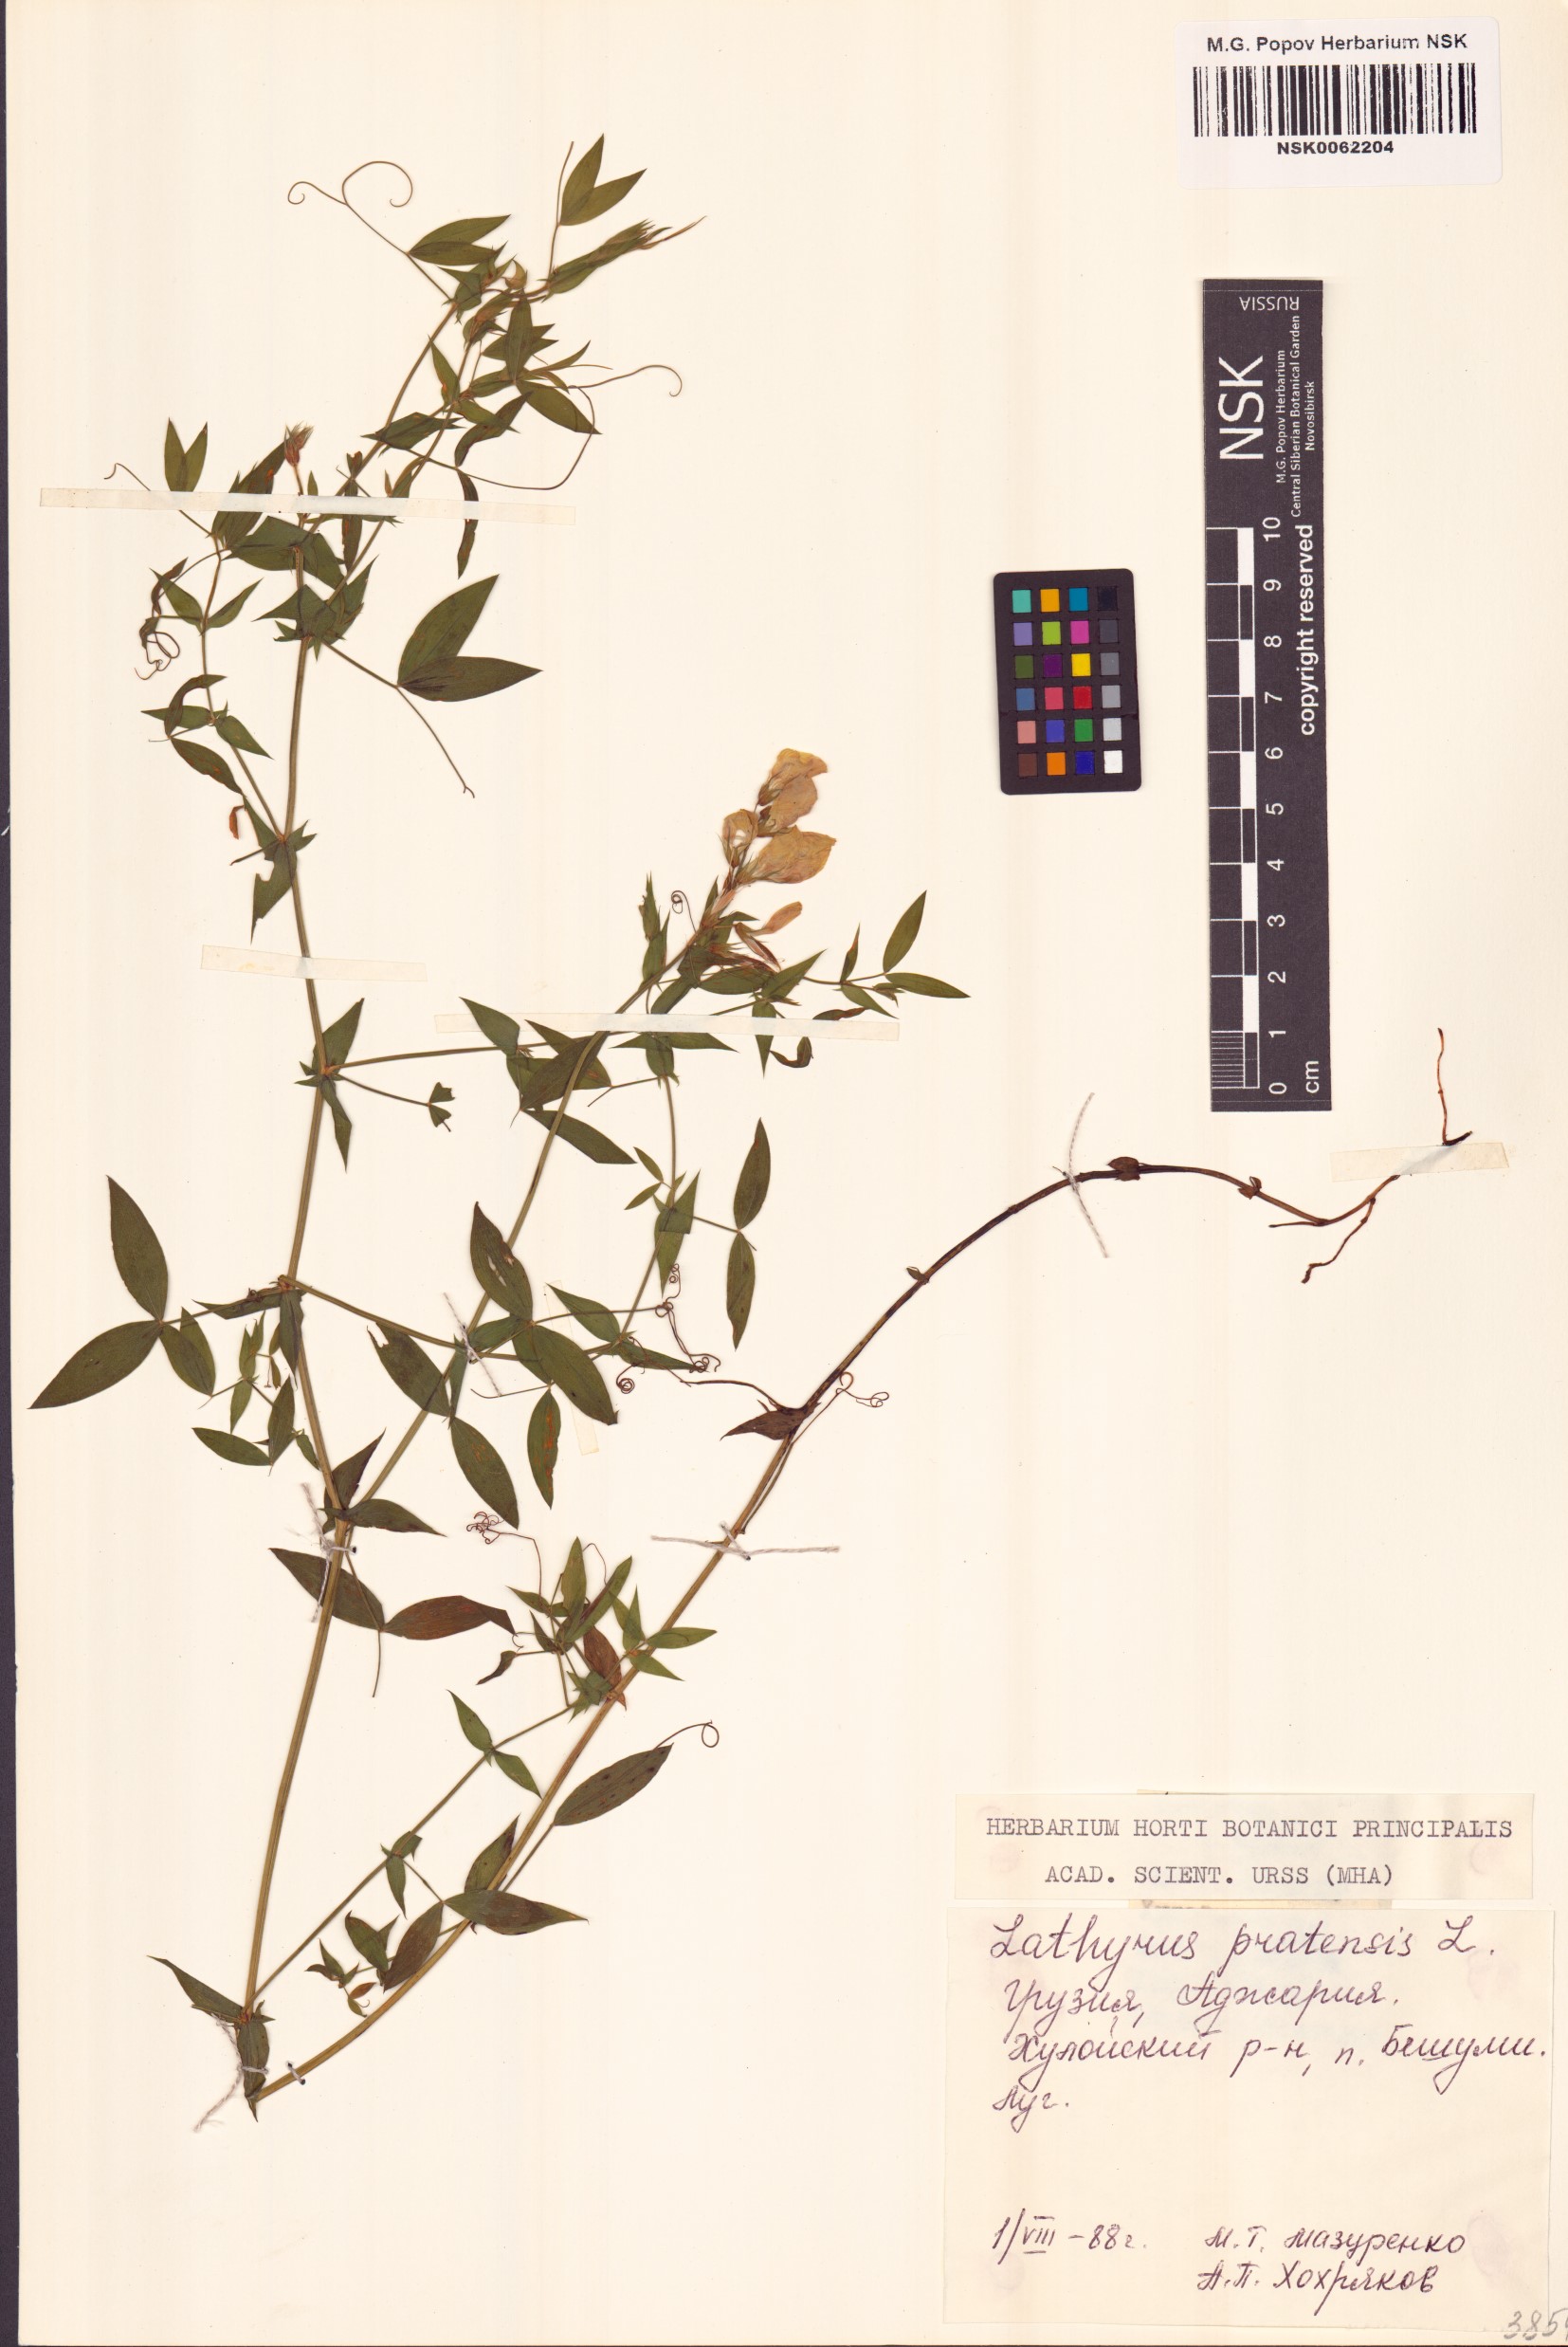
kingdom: Plantae
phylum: Tracheophyta
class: Magnoliopsida
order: Fabales
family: Fabaceae
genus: Lathyrus
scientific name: Lathyrus pratensis
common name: Meadow vetchling
